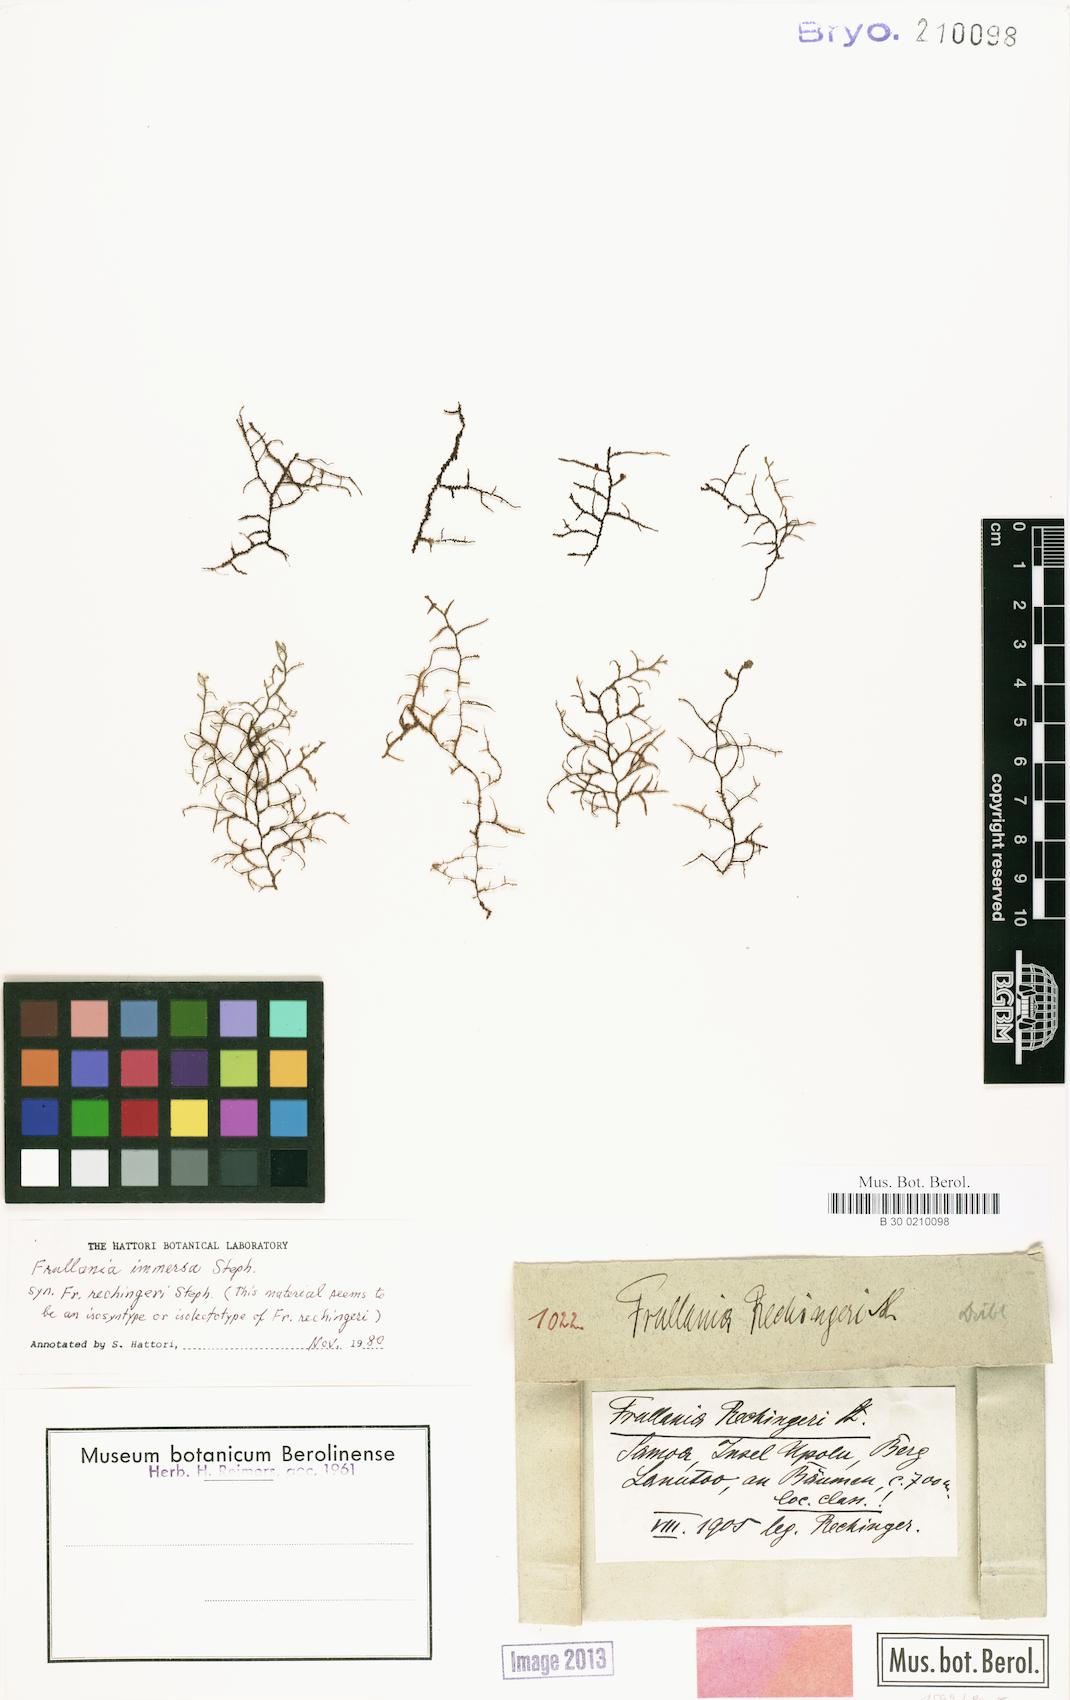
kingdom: Plantae
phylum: Marchantiophyta
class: Jungermanniopsida
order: Porellales
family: Frullaniaceae
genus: Frullania
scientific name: Frullania immersa
